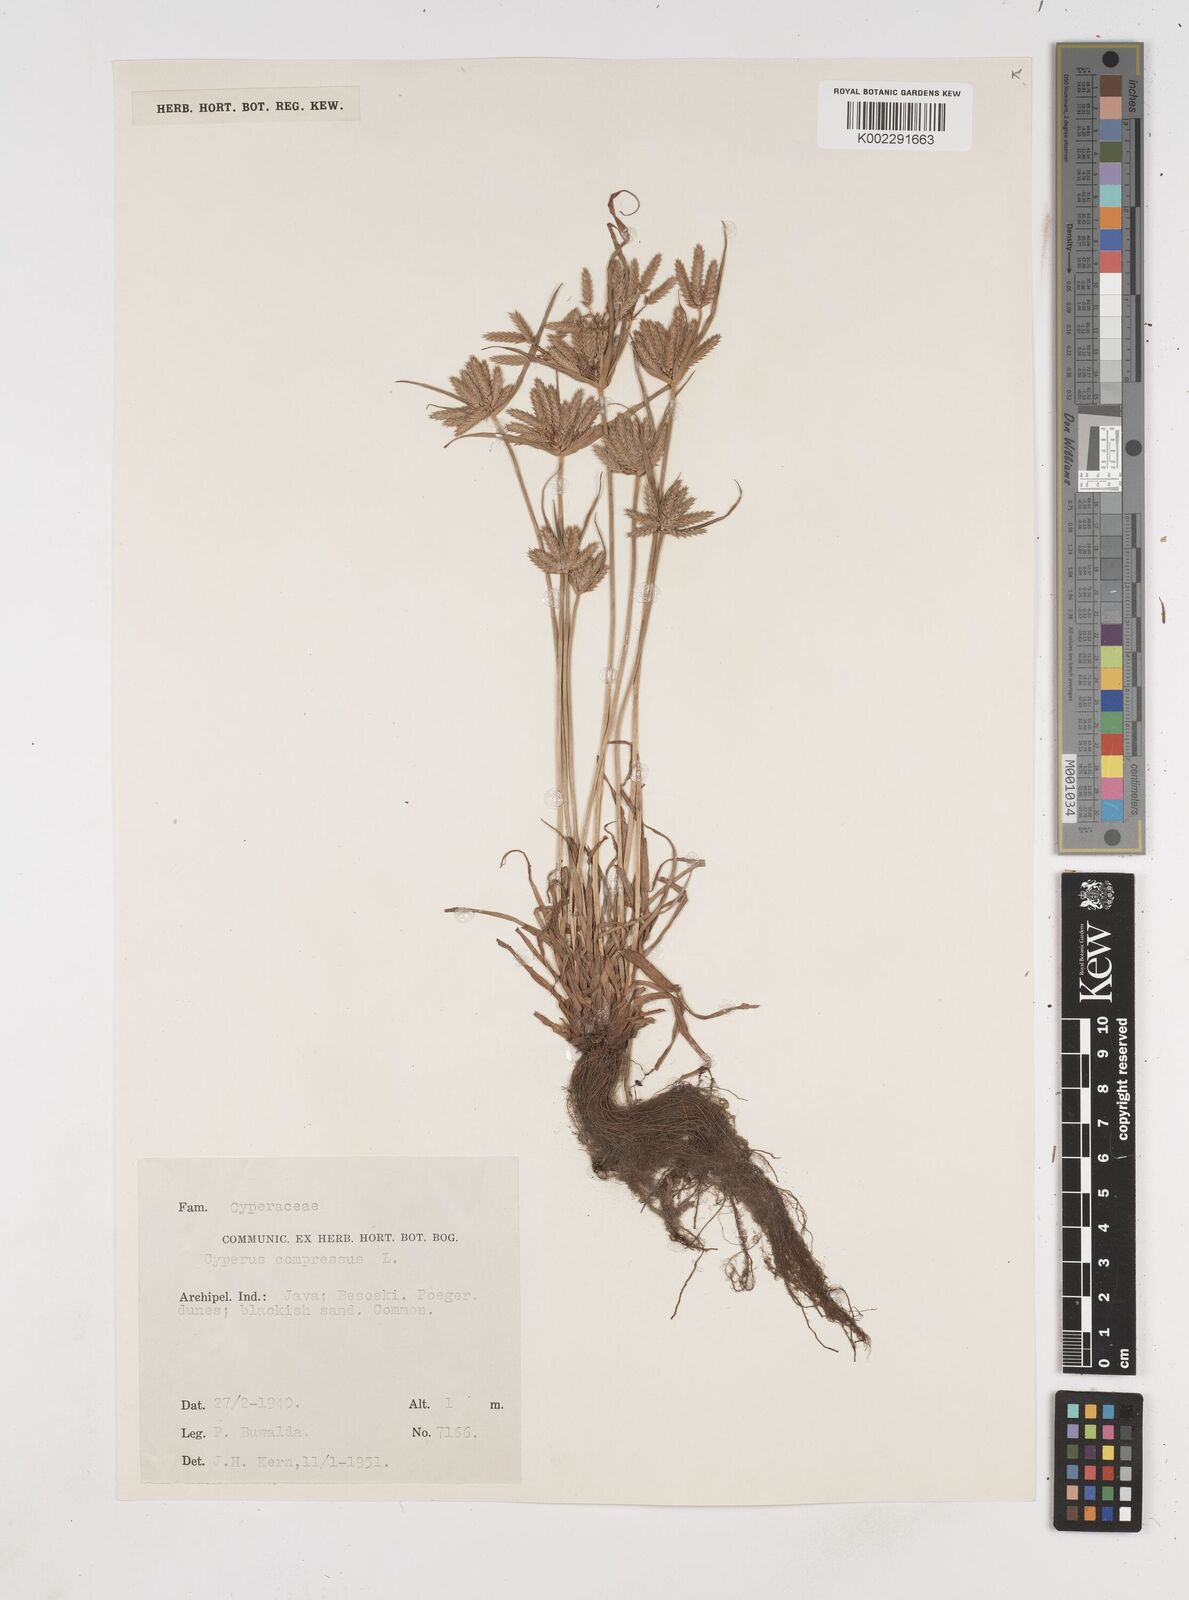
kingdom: Plantae
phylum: Tracheophyta
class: Liliopsida
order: Poales
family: Cyperaceae
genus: Cyperus
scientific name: Cyperus compressus
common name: Poorland flatsedge
